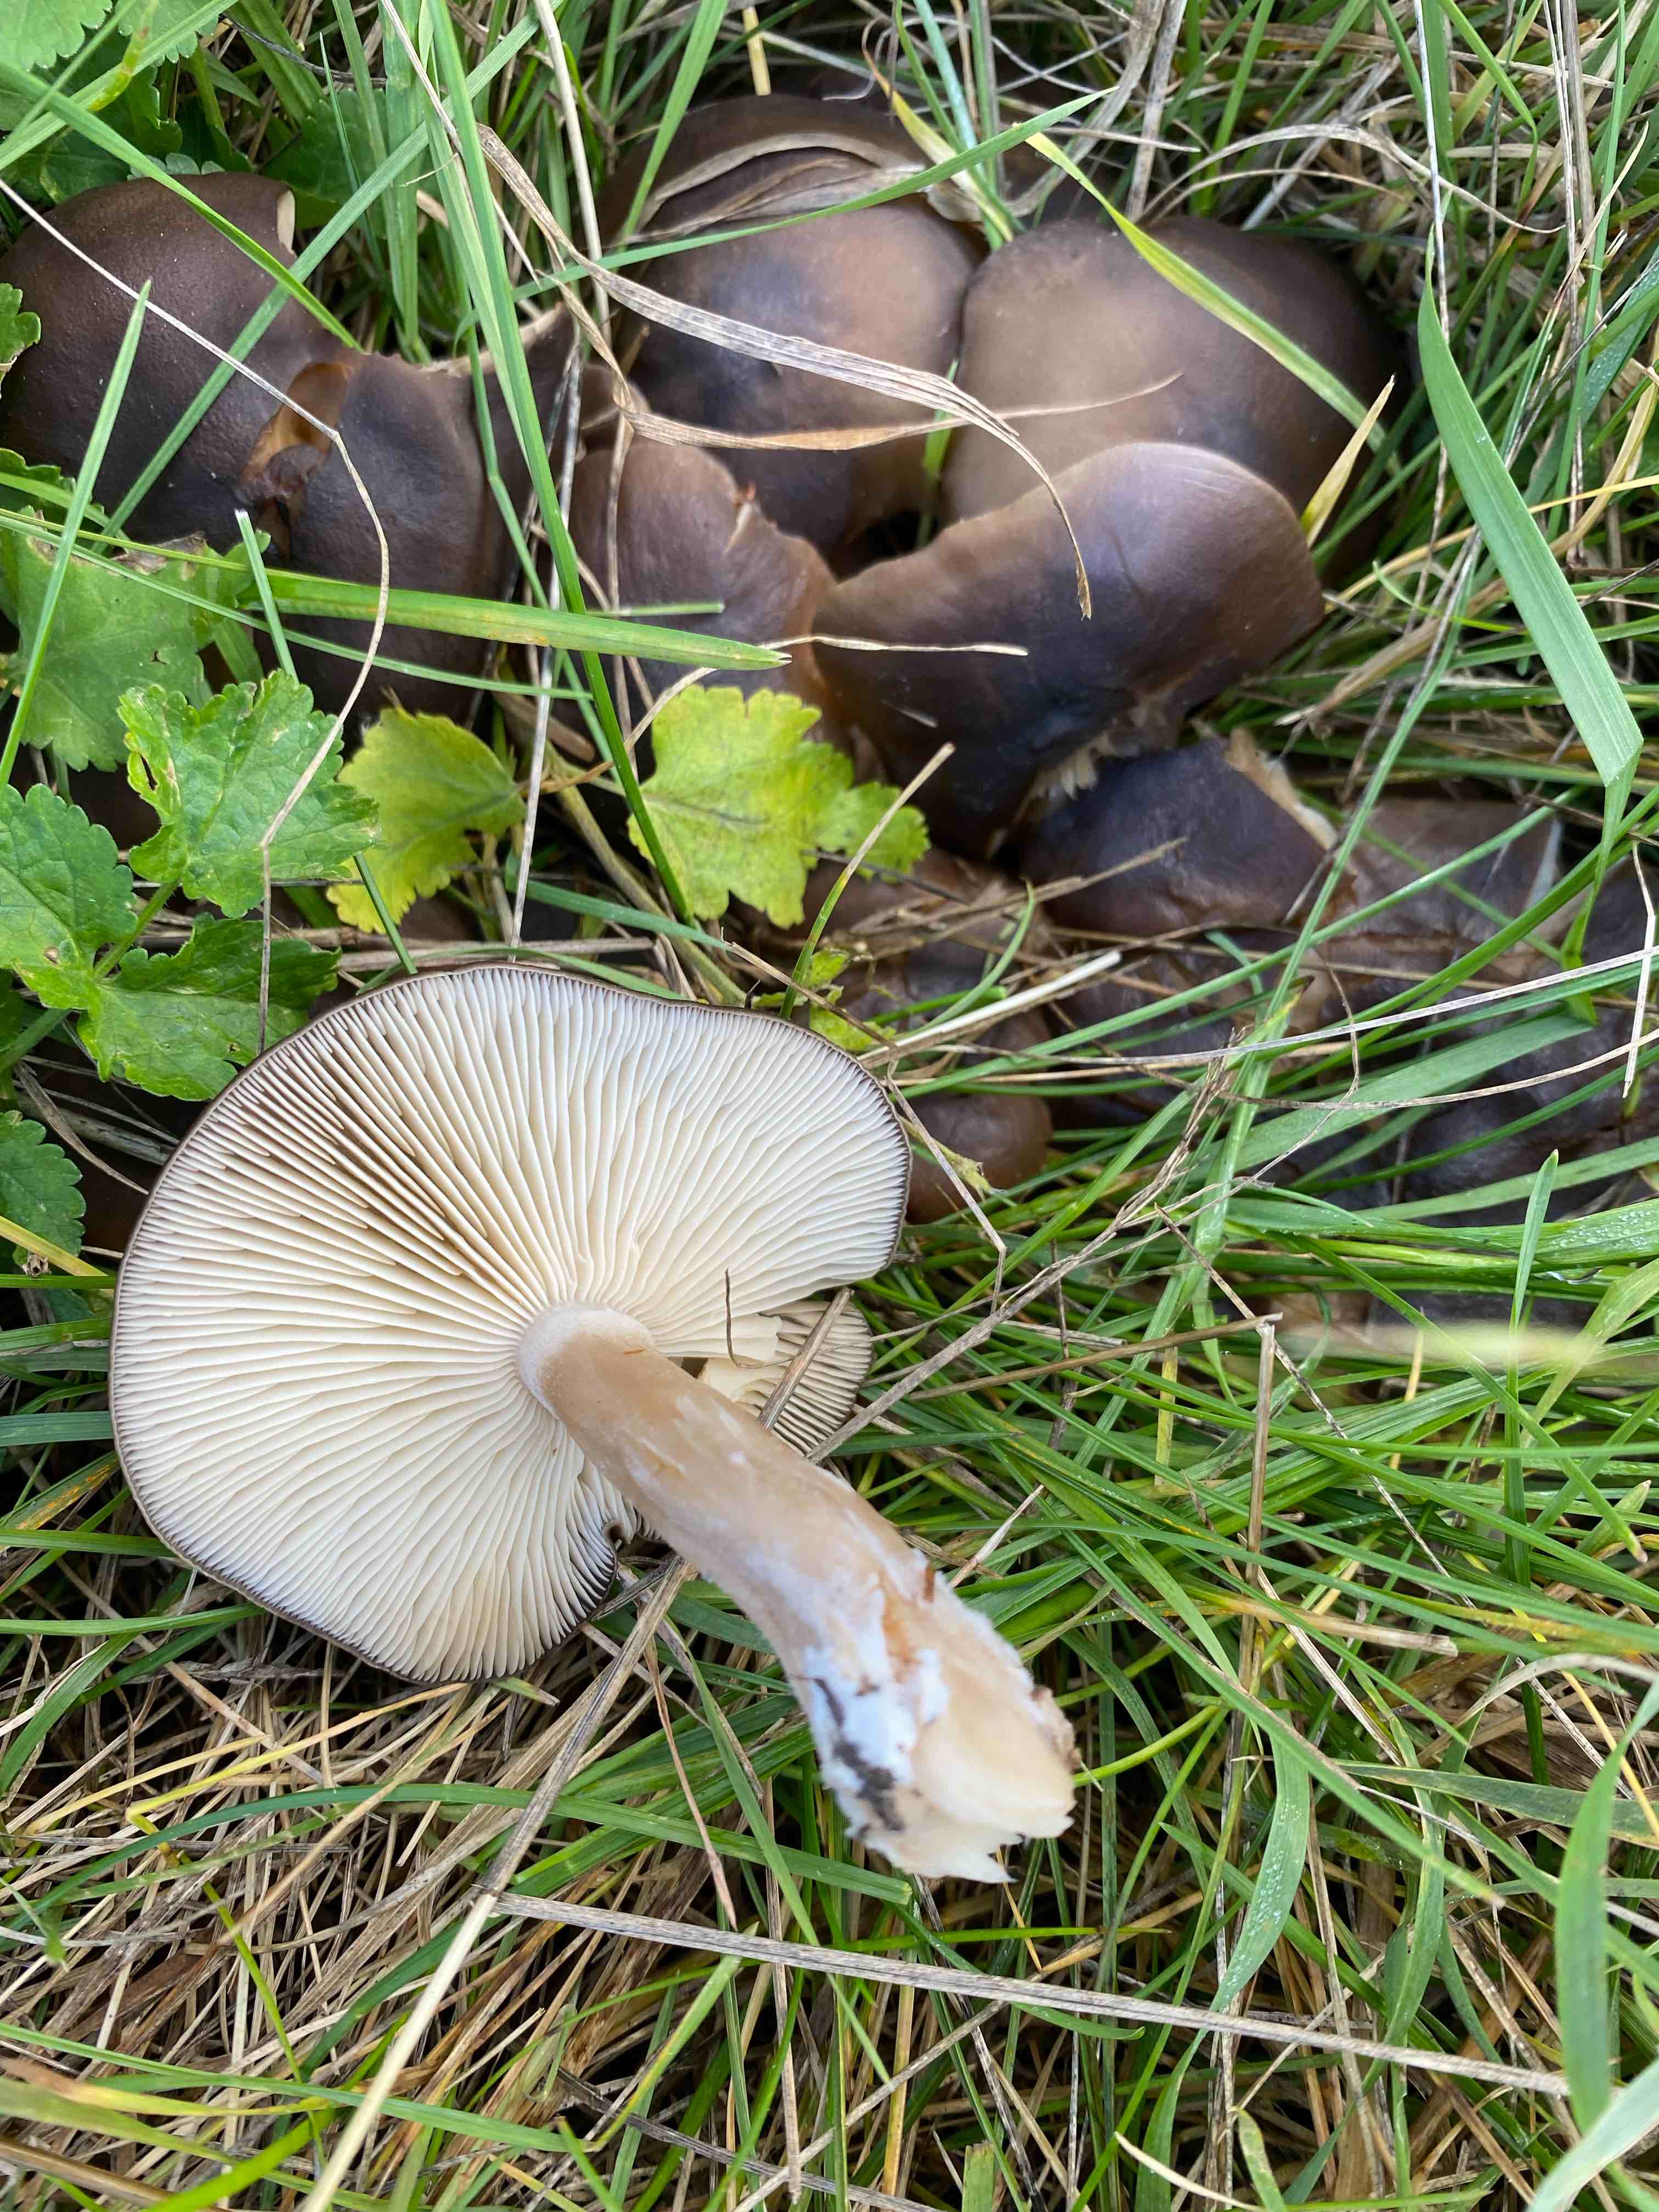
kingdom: Fungi
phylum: Basidiomycota
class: Agaricomycetes
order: Agaricales
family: Lyophyllaceae
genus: Lyophyllum
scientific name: Lyophyllum decastes
